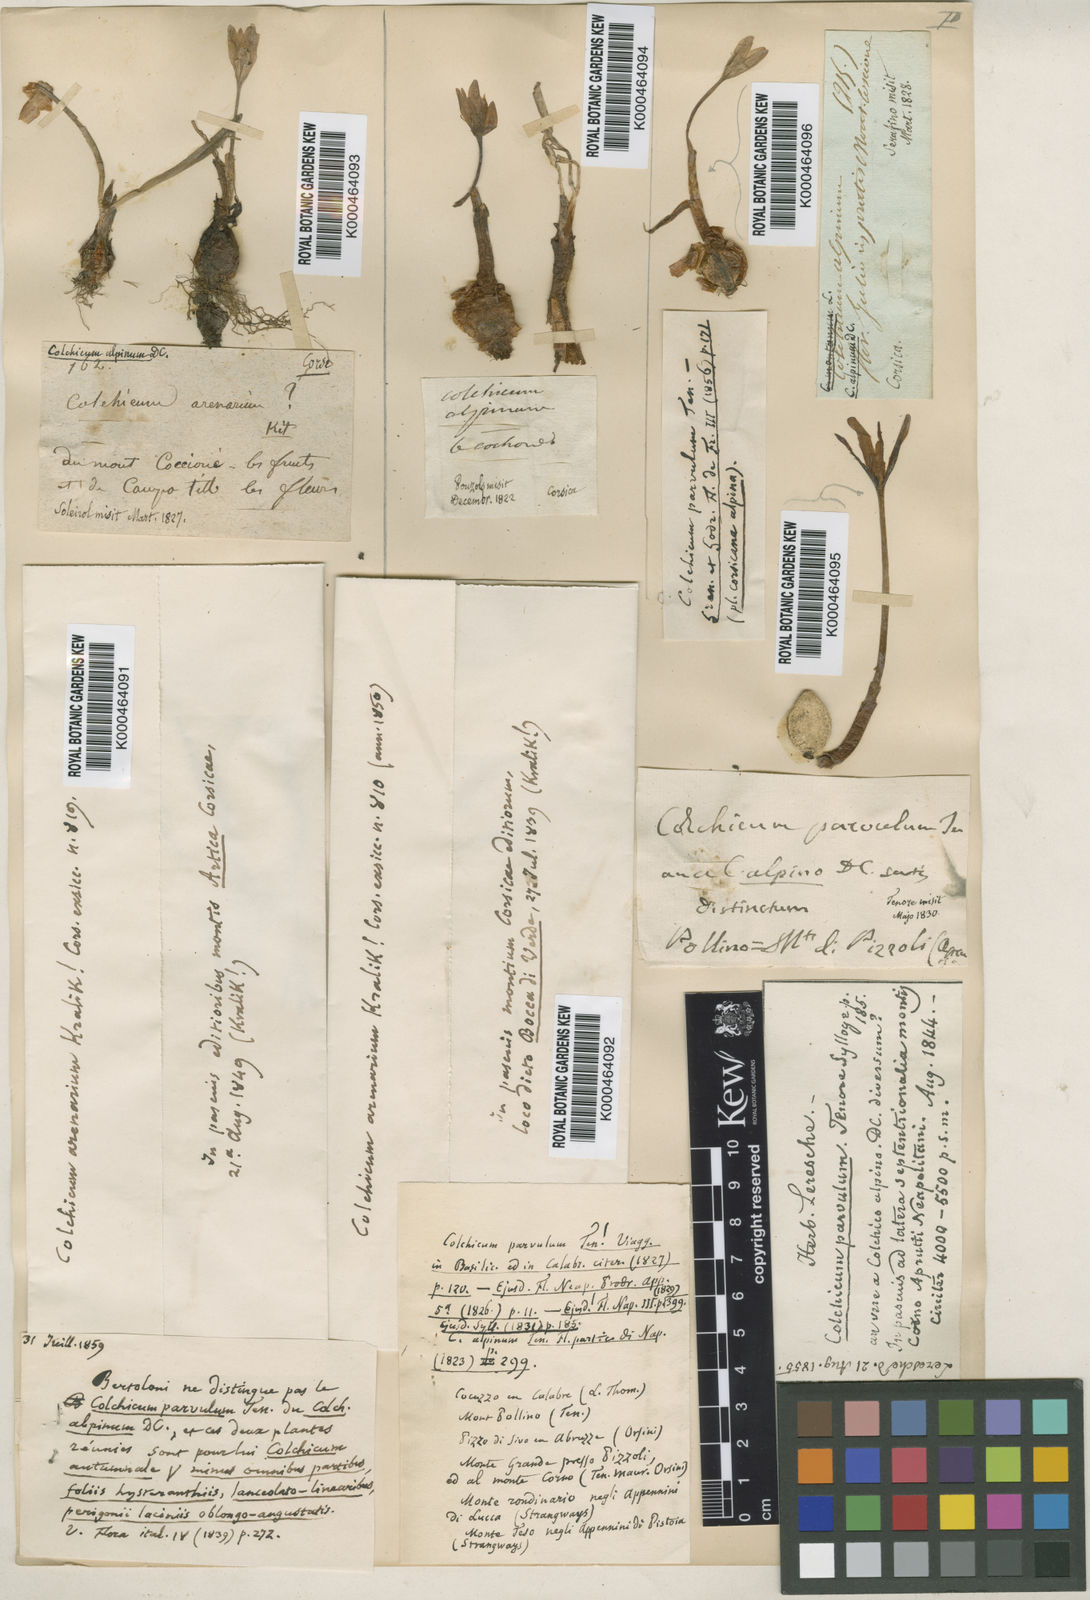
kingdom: Plantae
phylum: Tracheophyta
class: Liliopsida
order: Liliales
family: Colchicaceae
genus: Colchicum
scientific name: Colchicum alpinum
